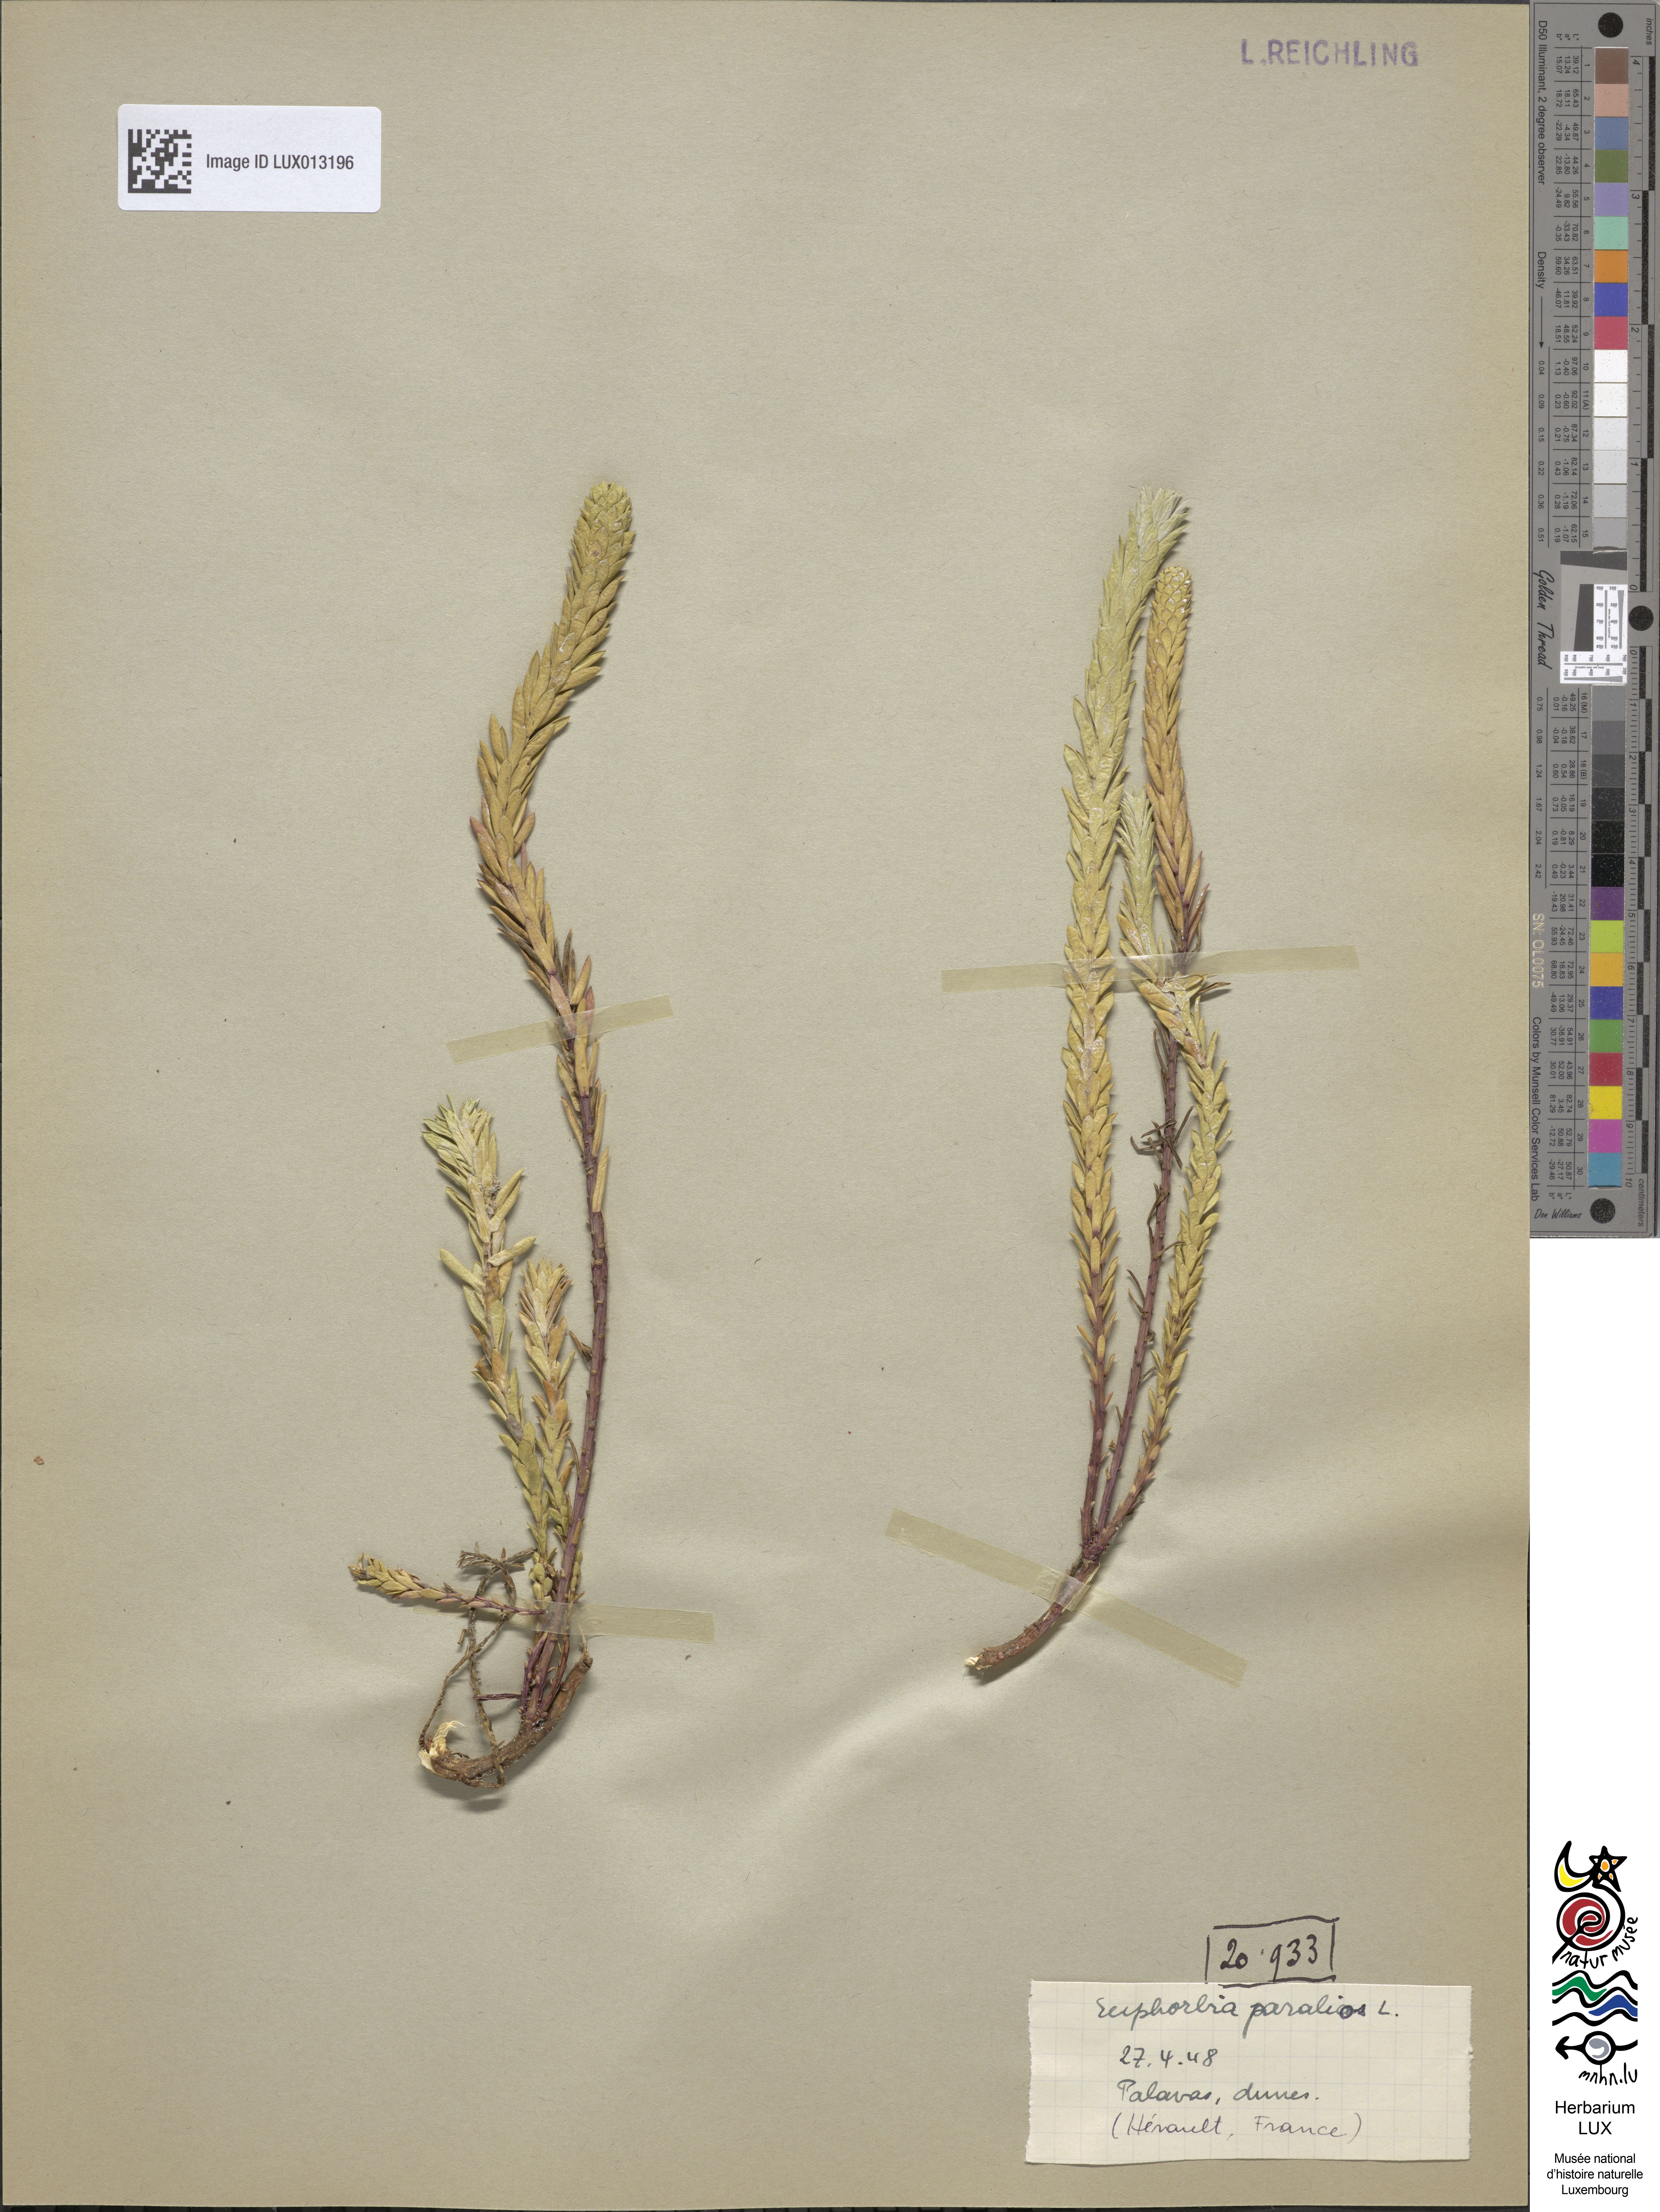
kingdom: Plantae
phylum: Tracheophyta
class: Magnoliopsida
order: Malpighiales
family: Euphorbiaceae
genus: Euphorbia
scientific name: Euphorbia paralias
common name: Sea spurge
